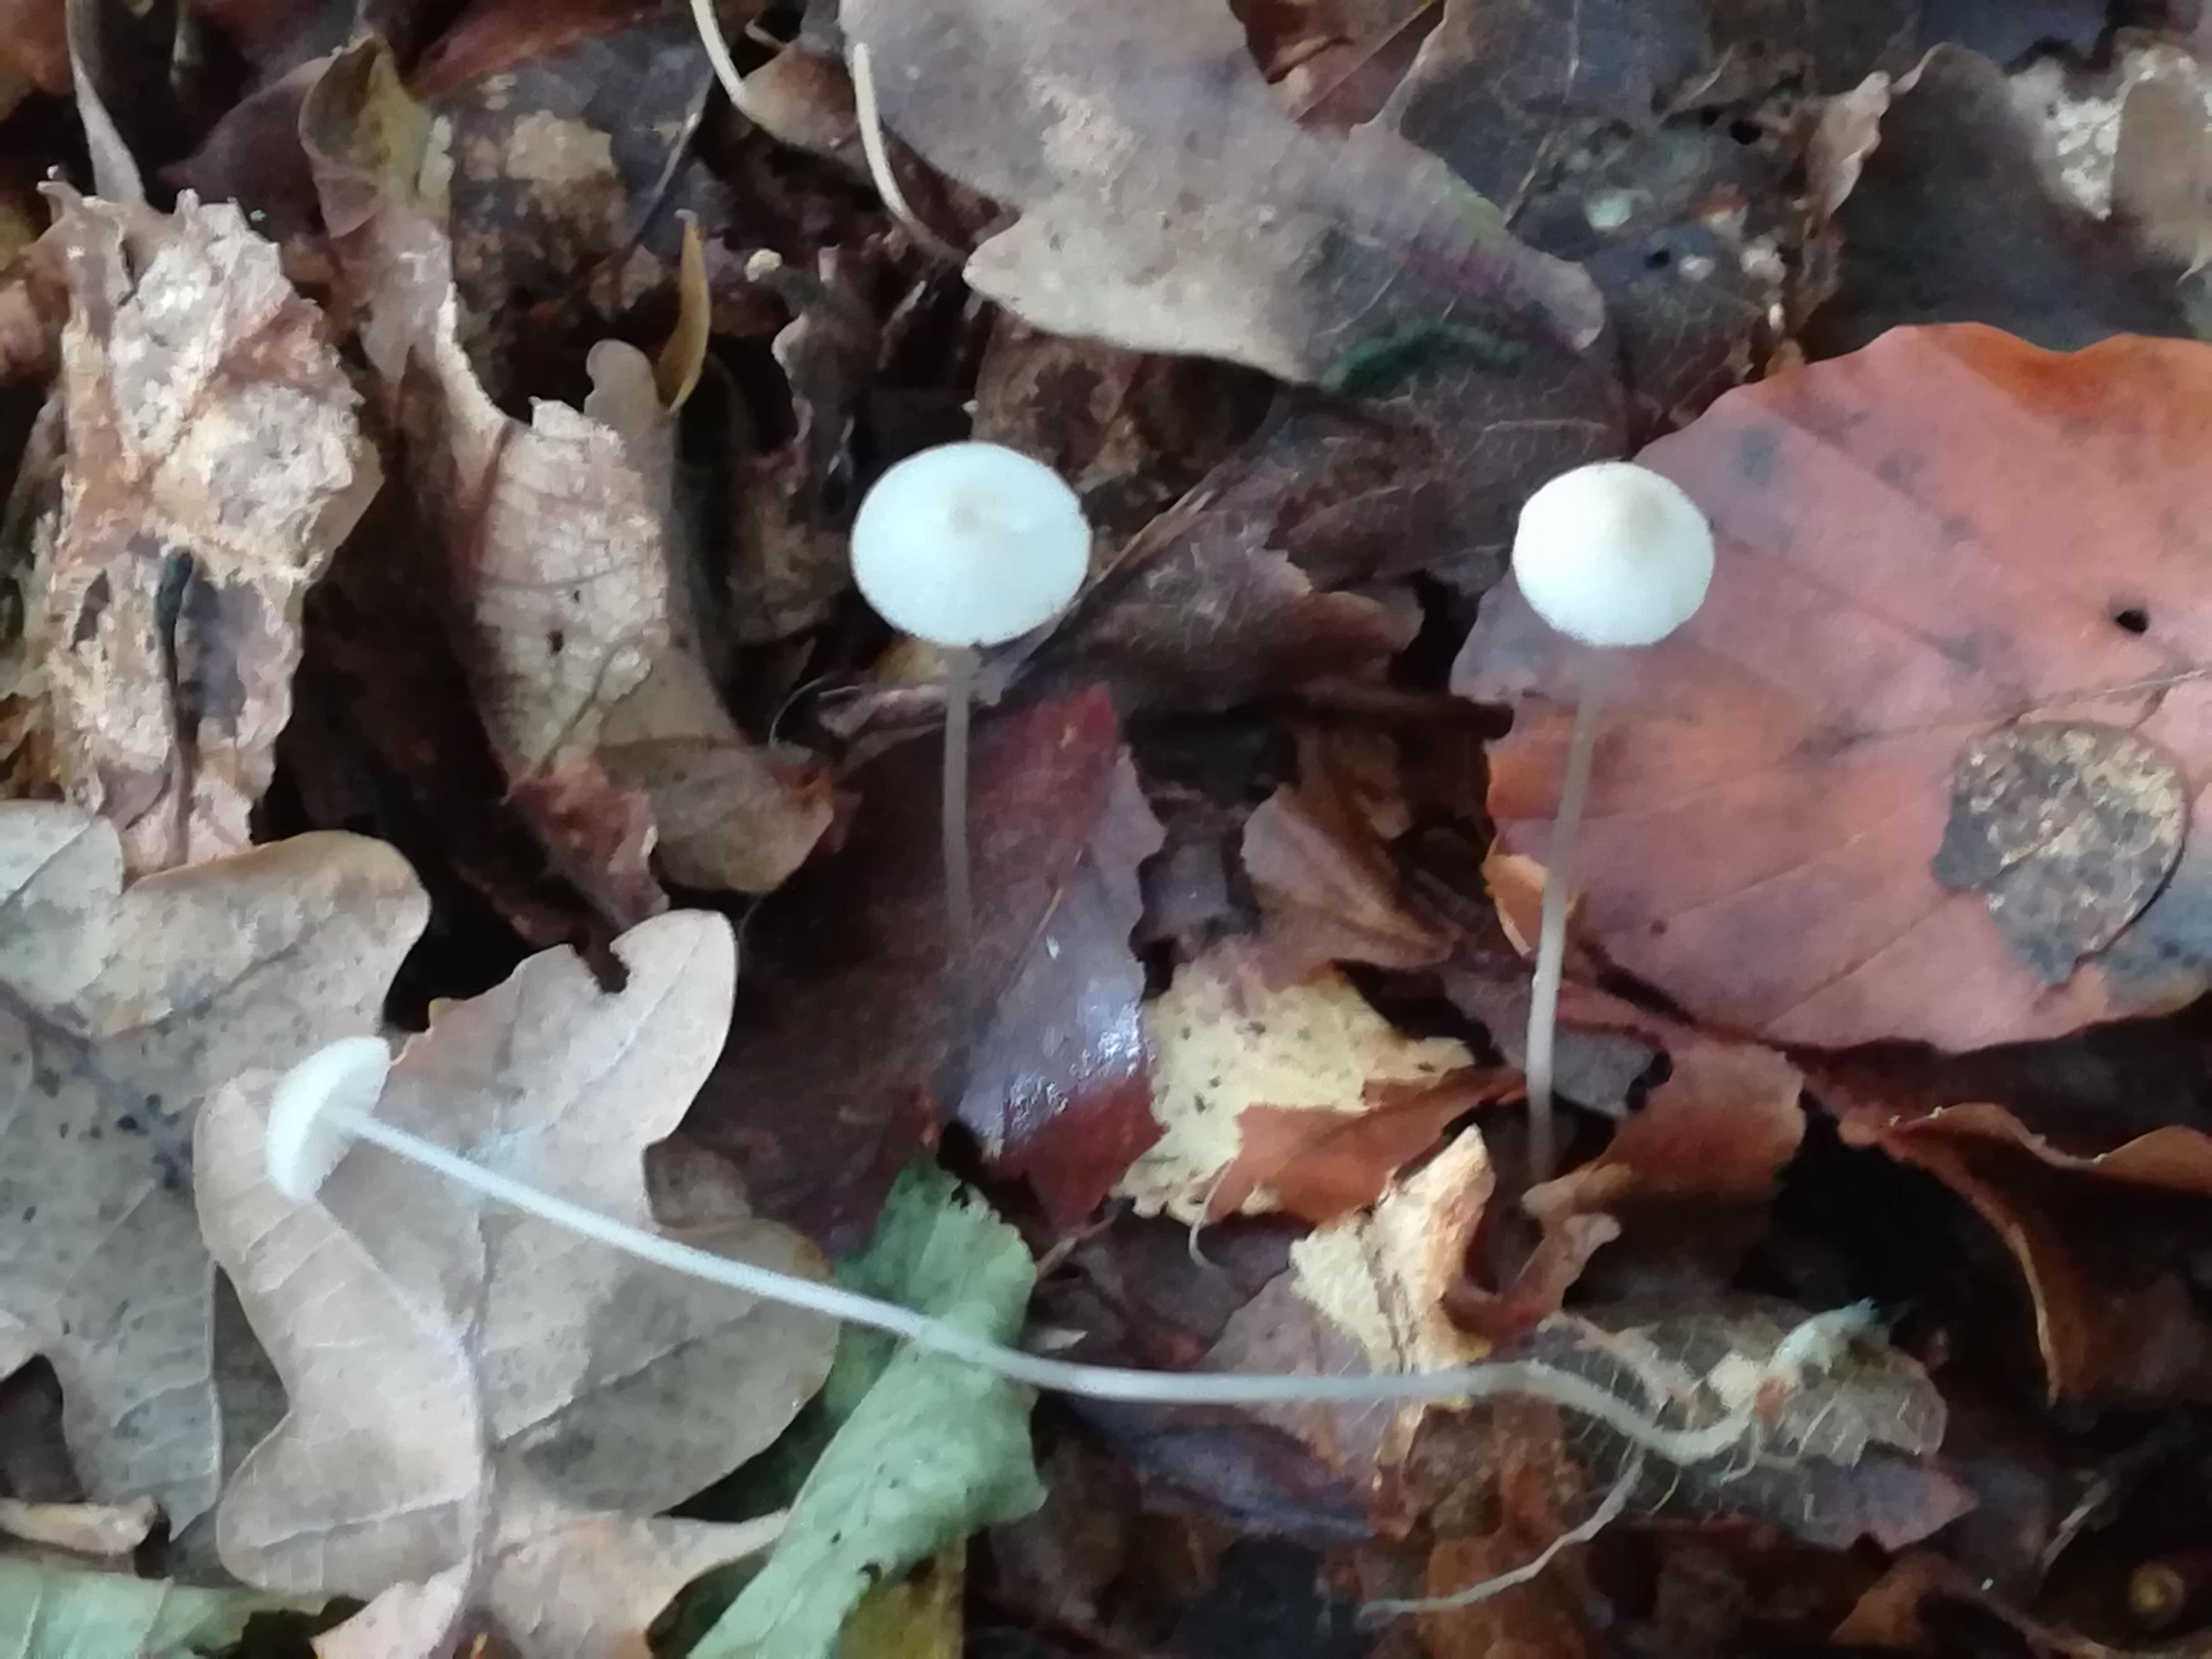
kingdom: Fungi
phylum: Basidiomycota
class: Agaricomycetes
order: Agaricales
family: Mycenaceae
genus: Mycena
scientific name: Mycena vitilis
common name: blankstokket huesvamp
